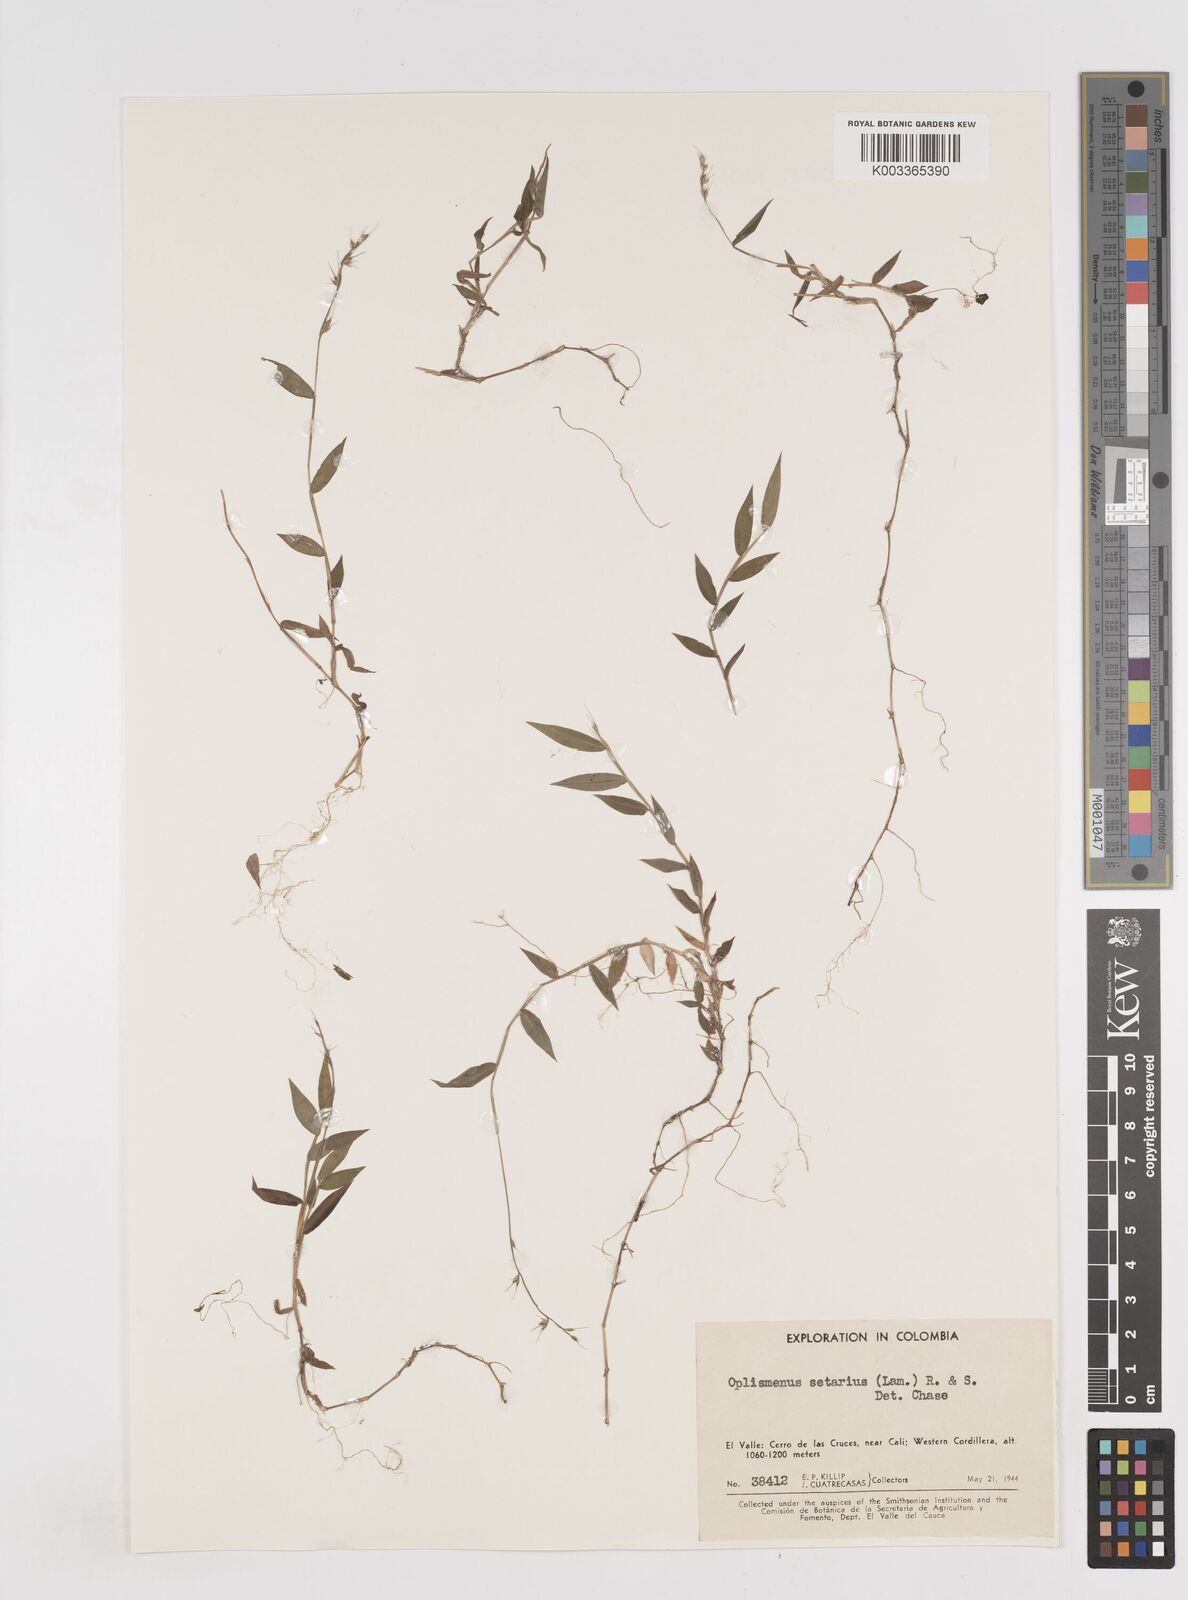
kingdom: Plantae
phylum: Tracheophyta
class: Liliopsida
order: Poales
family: Poaceae
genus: Oplismenus
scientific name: Oplismenus hirtellus
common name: Basketgrass
